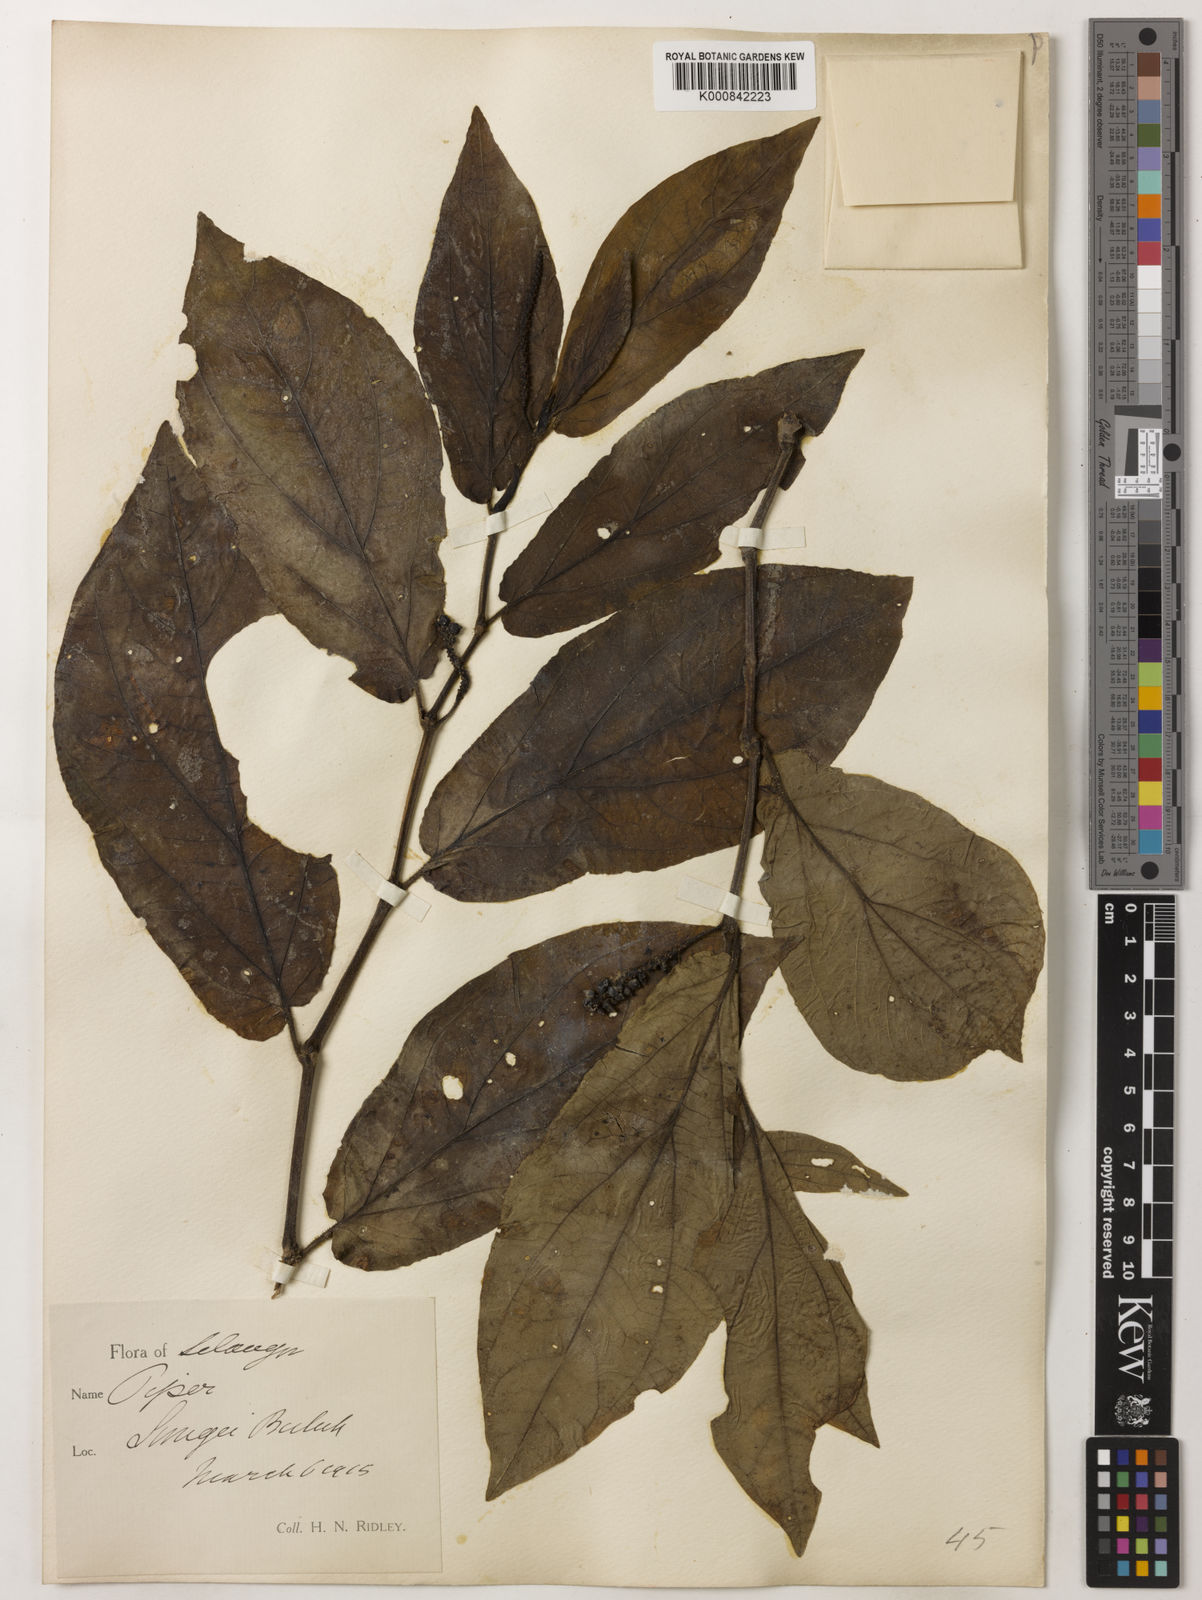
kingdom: Plantae
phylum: Tracheophyta
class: Magnoliopsida
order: Piperales
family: Piperaceae
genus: Piper
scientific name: Piper ridleyi
